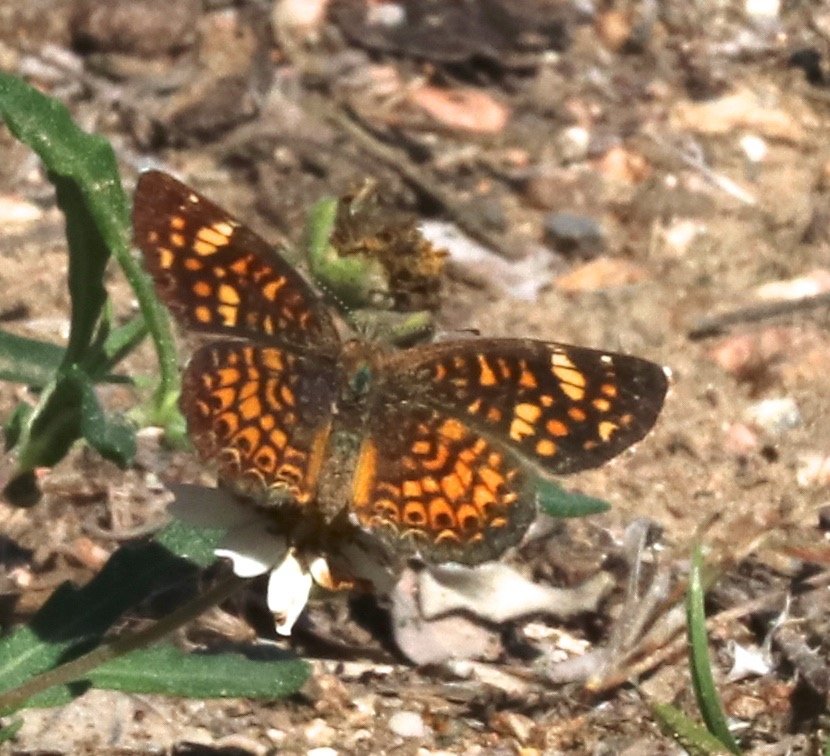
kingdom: Animalia
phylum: Arthropoda
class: Insecta
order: Lepidoptera
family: Nymphalidae
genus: Phyciodes
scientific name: Phyciodes vesta
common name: Vesta Crescent
